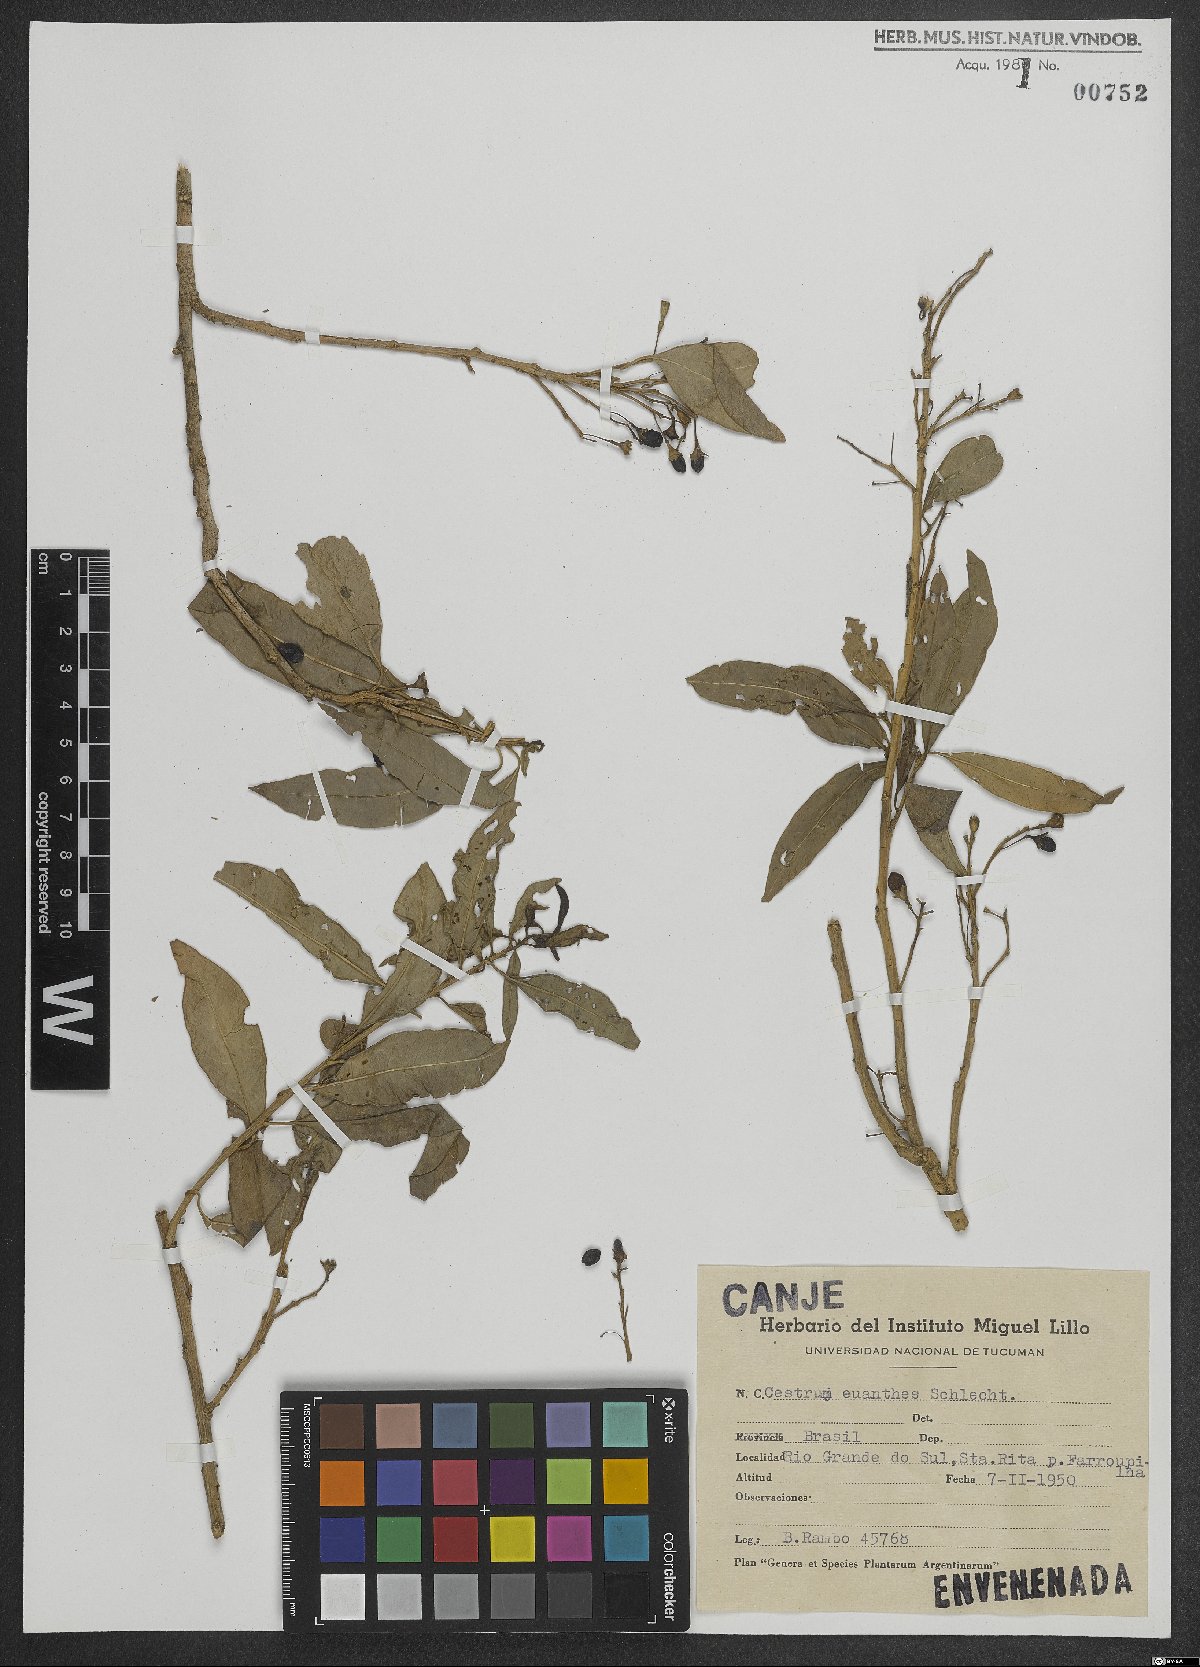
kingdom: Plantae
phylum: Tracheophyta
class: Magnoliopsida
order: Solanales
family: Solanaceae
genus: Cestrum
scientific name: Cestrum euanthes
